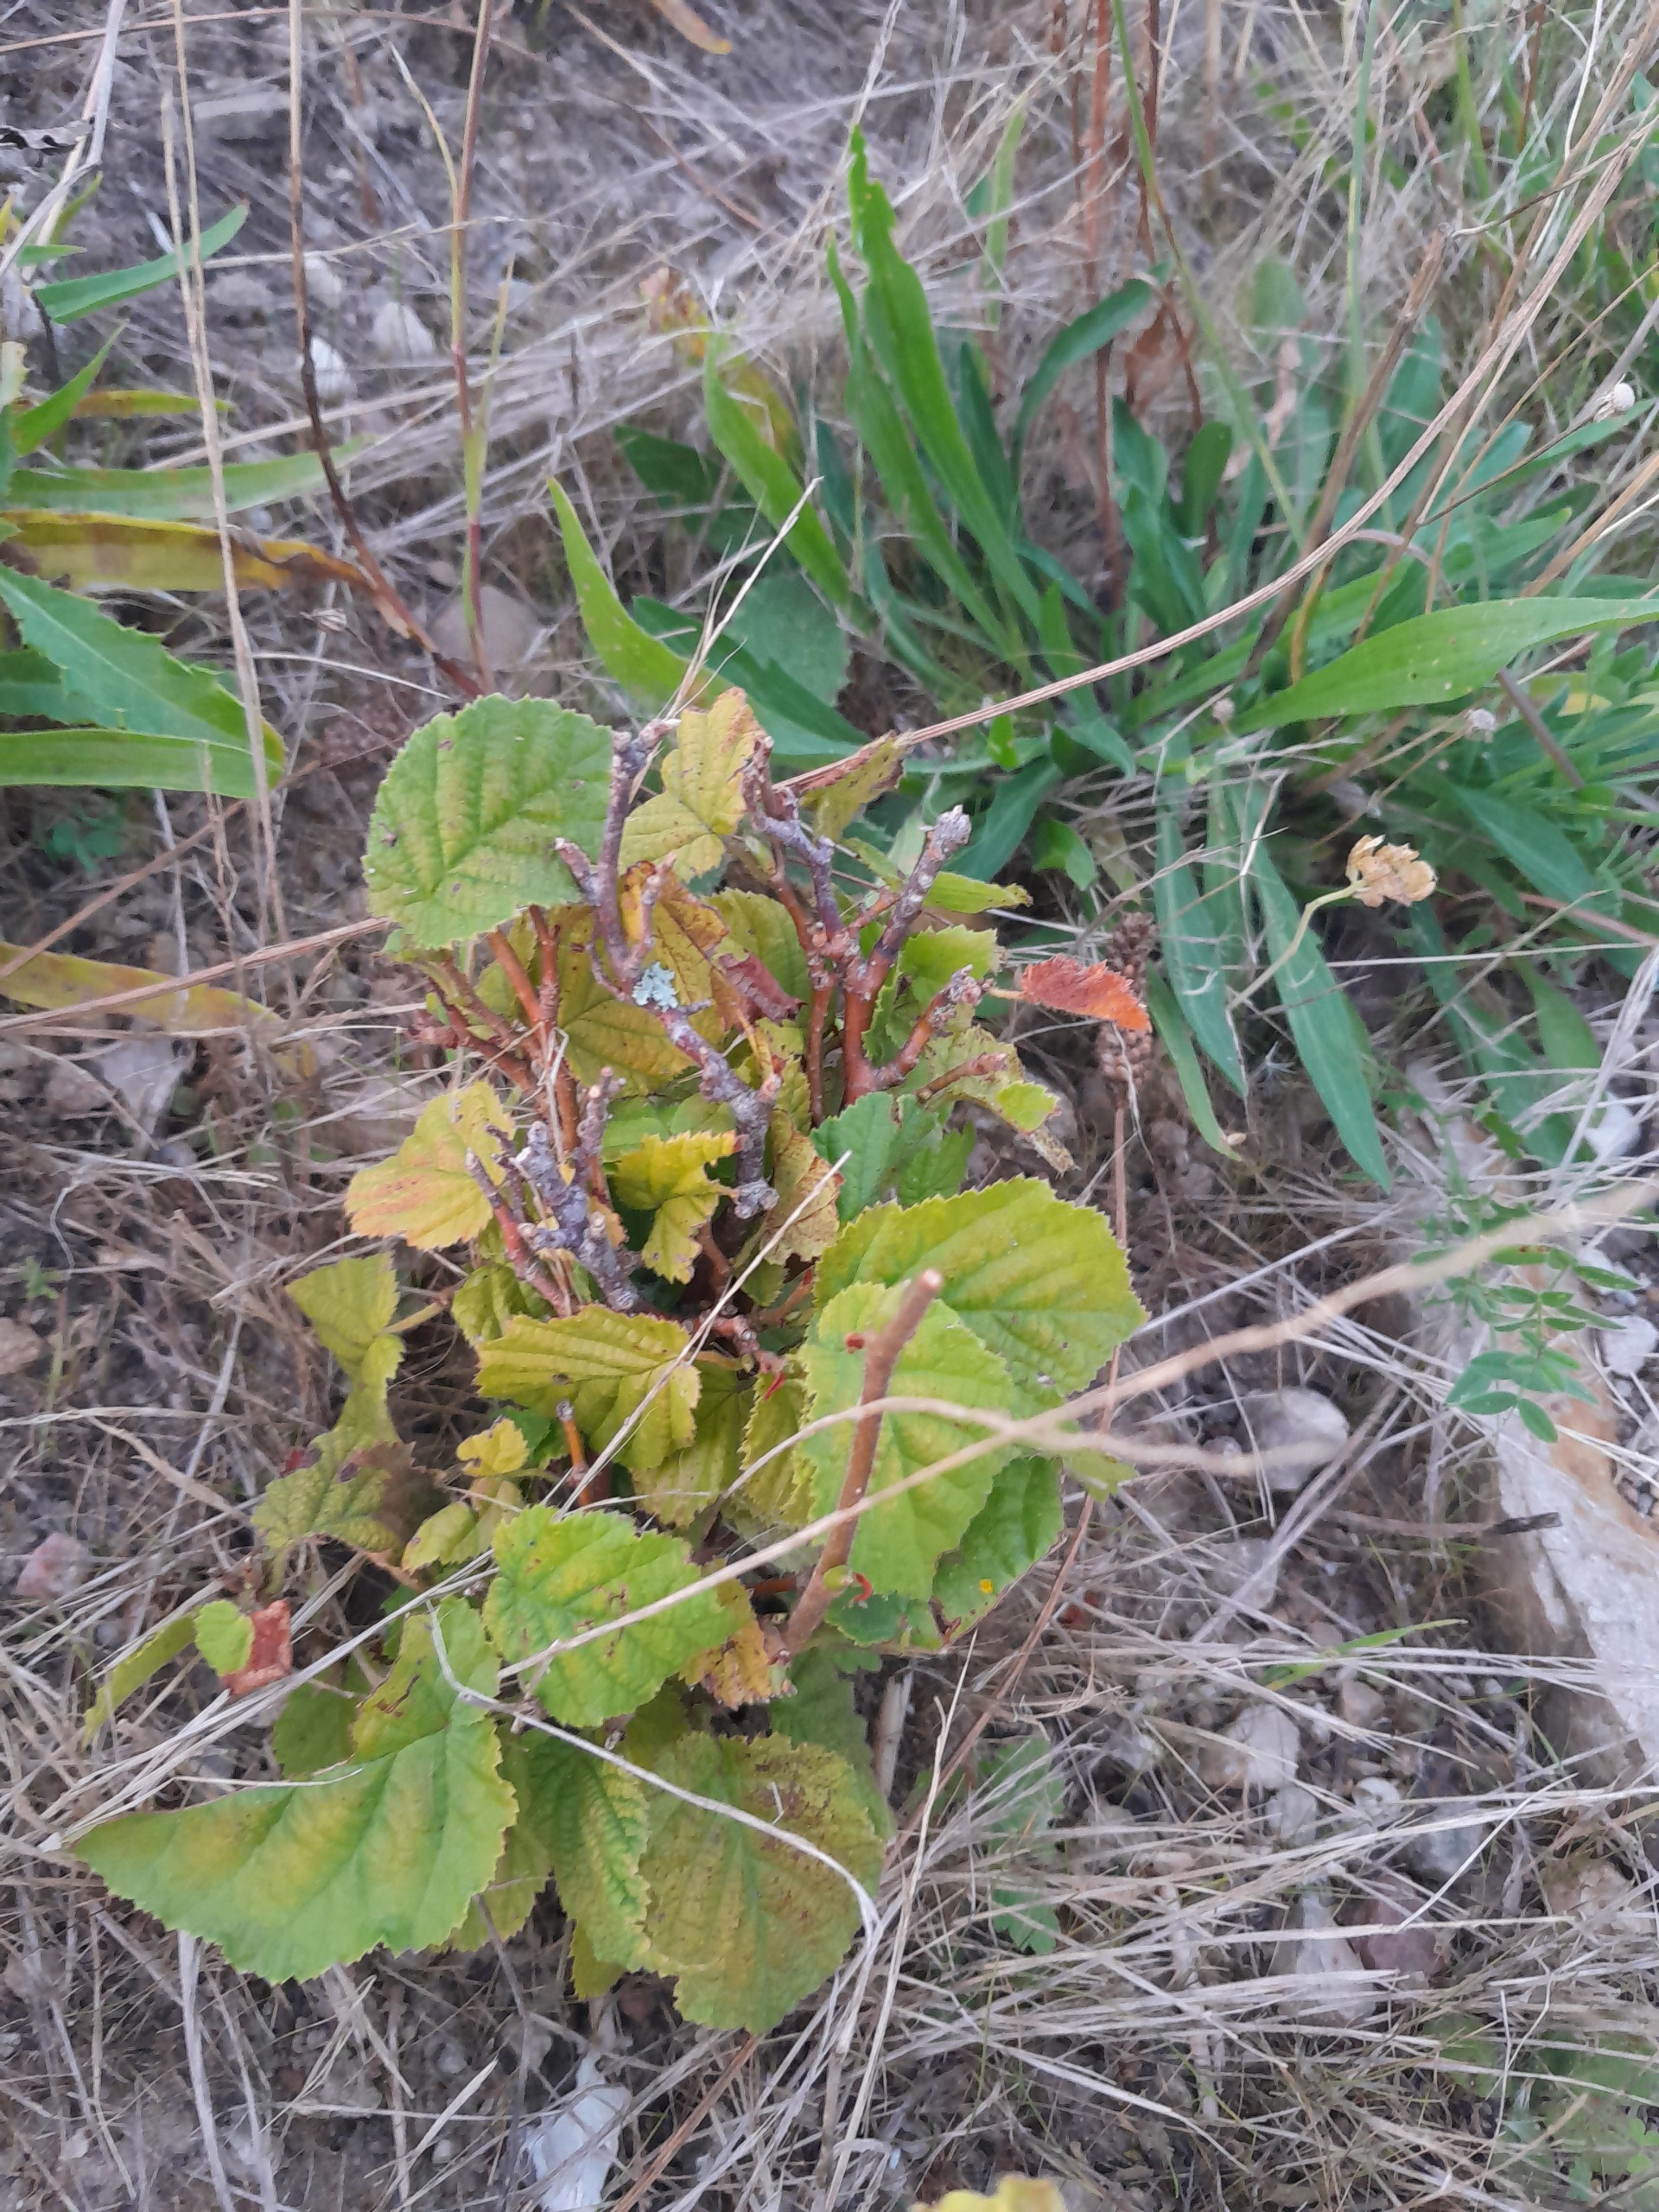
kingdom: Plantae
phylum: Tracheophyta
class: Magnoliopsida
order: Fagales
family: Betulaceae
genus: Corylus
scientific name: Corylus avellana
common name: Hassel
